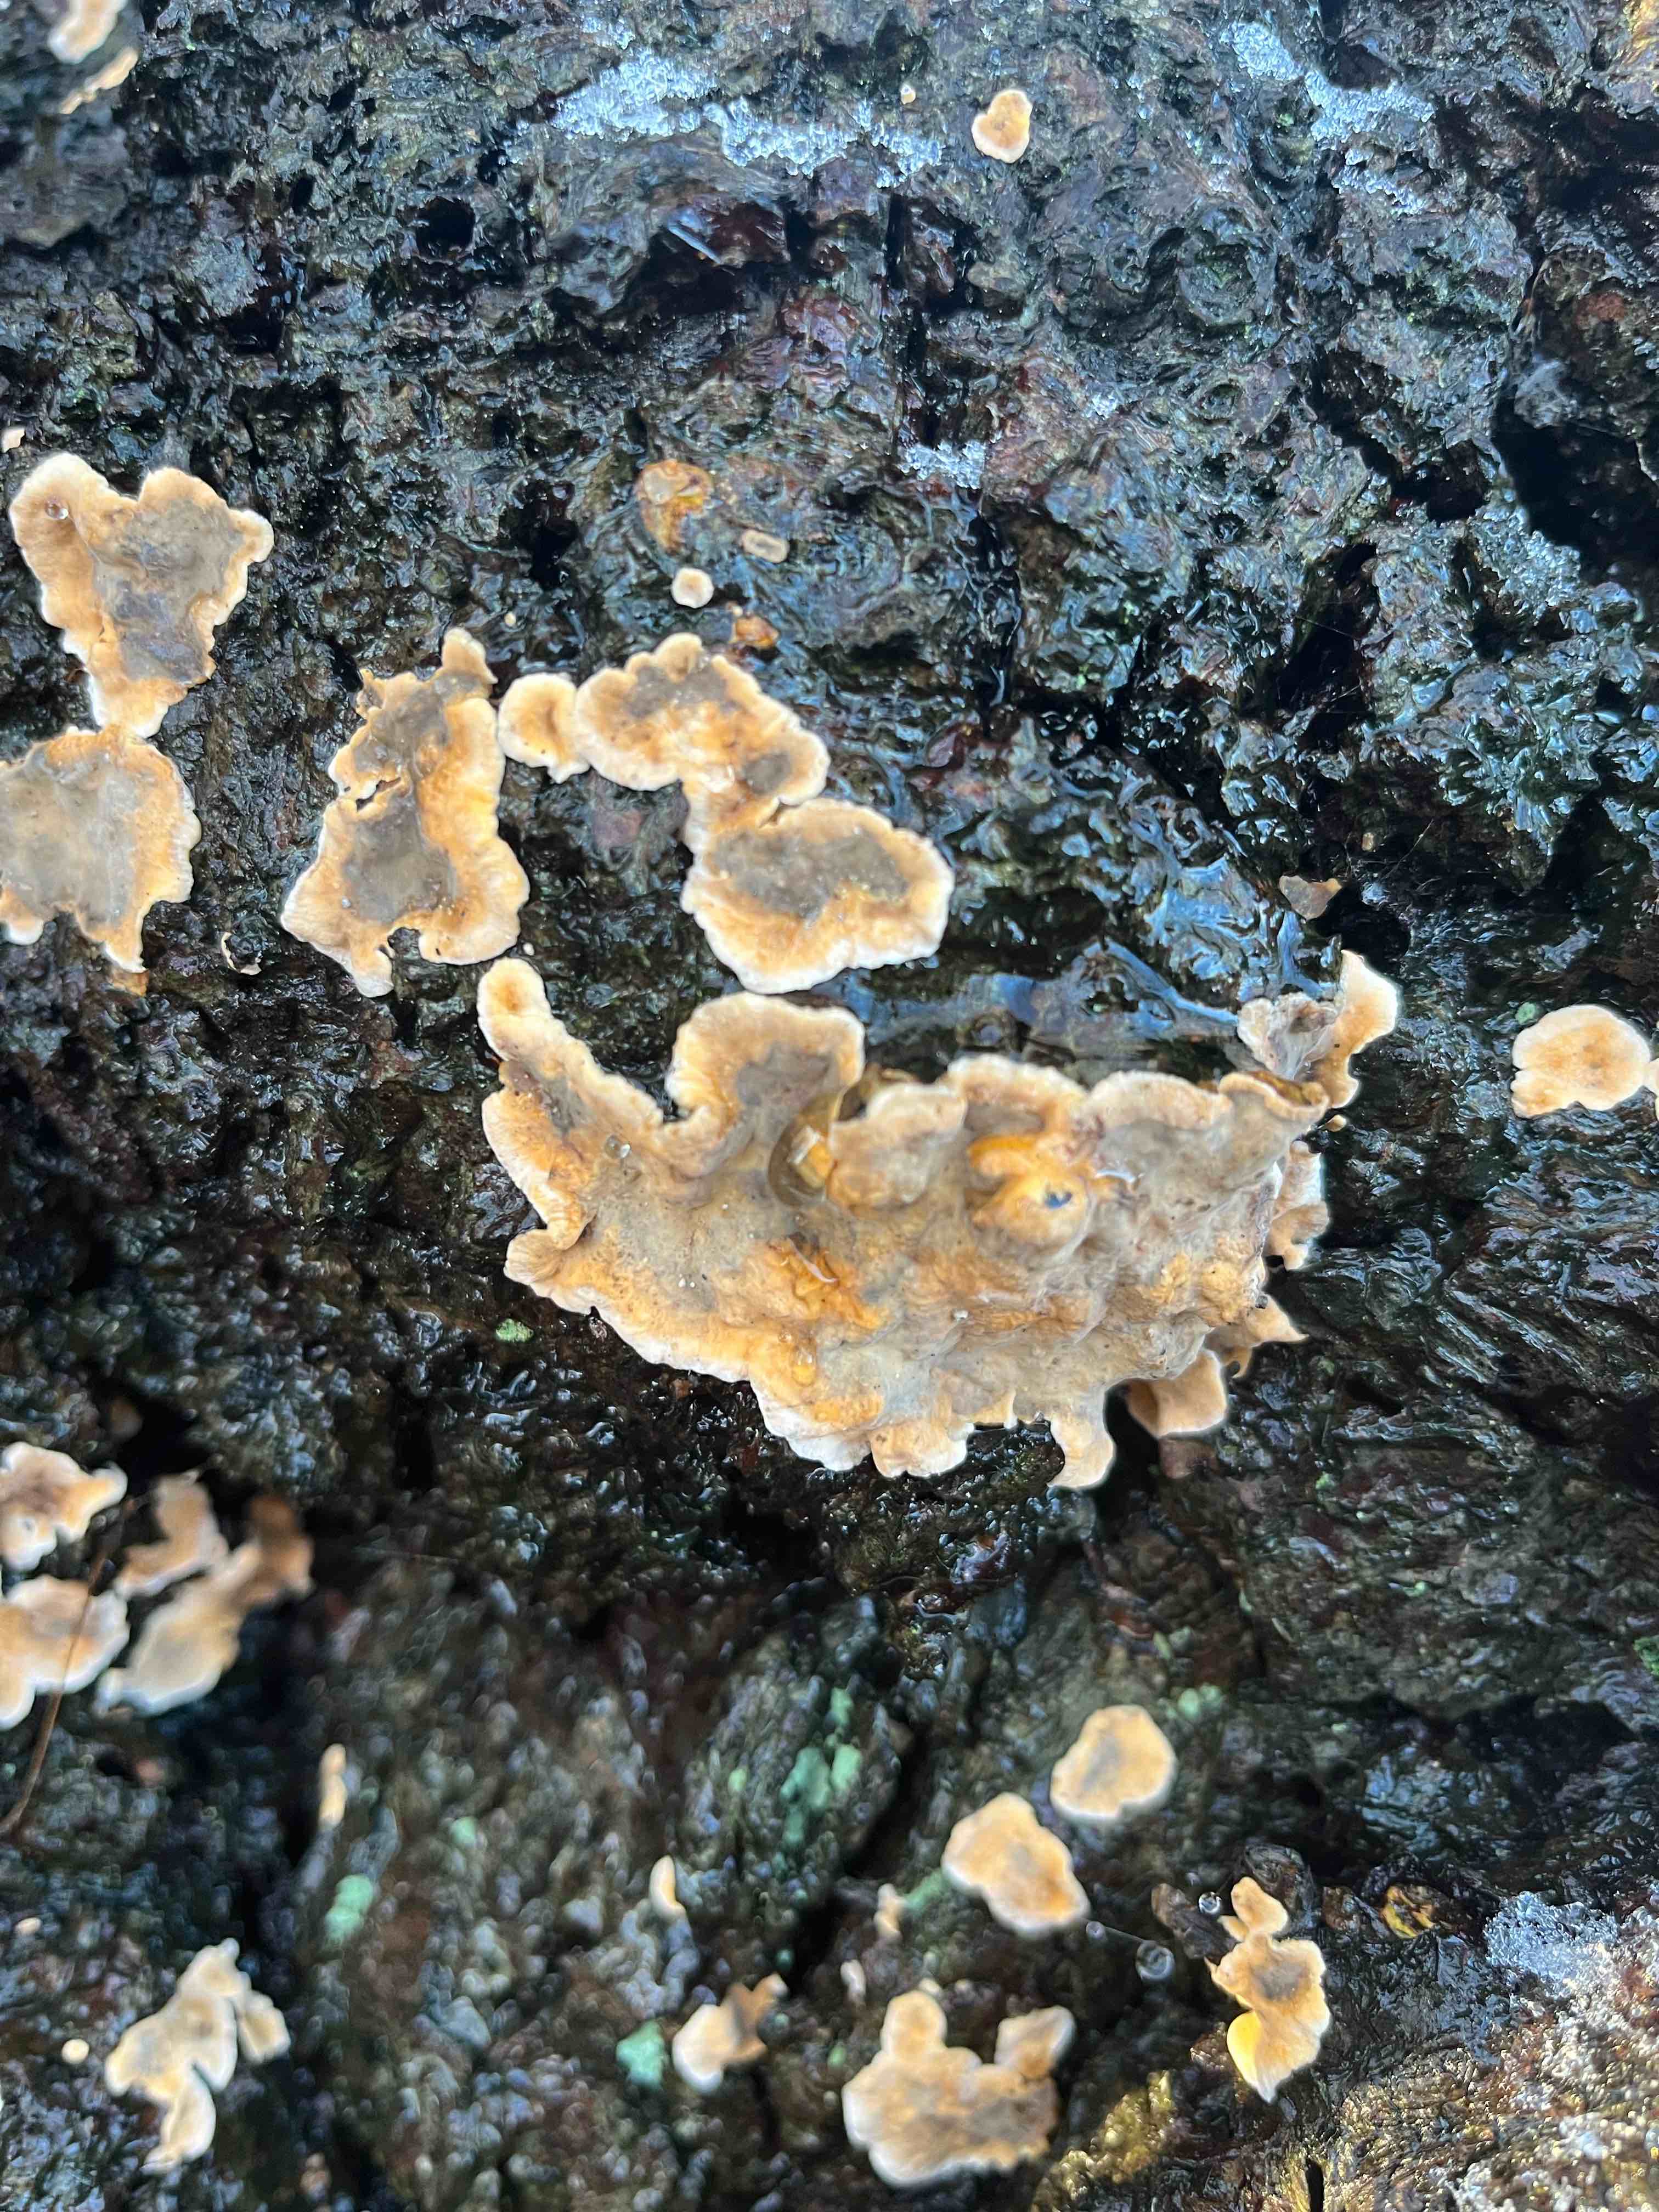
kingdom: Fungi
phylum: Basidiomycota
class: Agaricomycetes
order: Russulales
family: Stereaceae
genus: Stereum
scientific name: Stereum rugosum
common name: rynket lædersvamp
